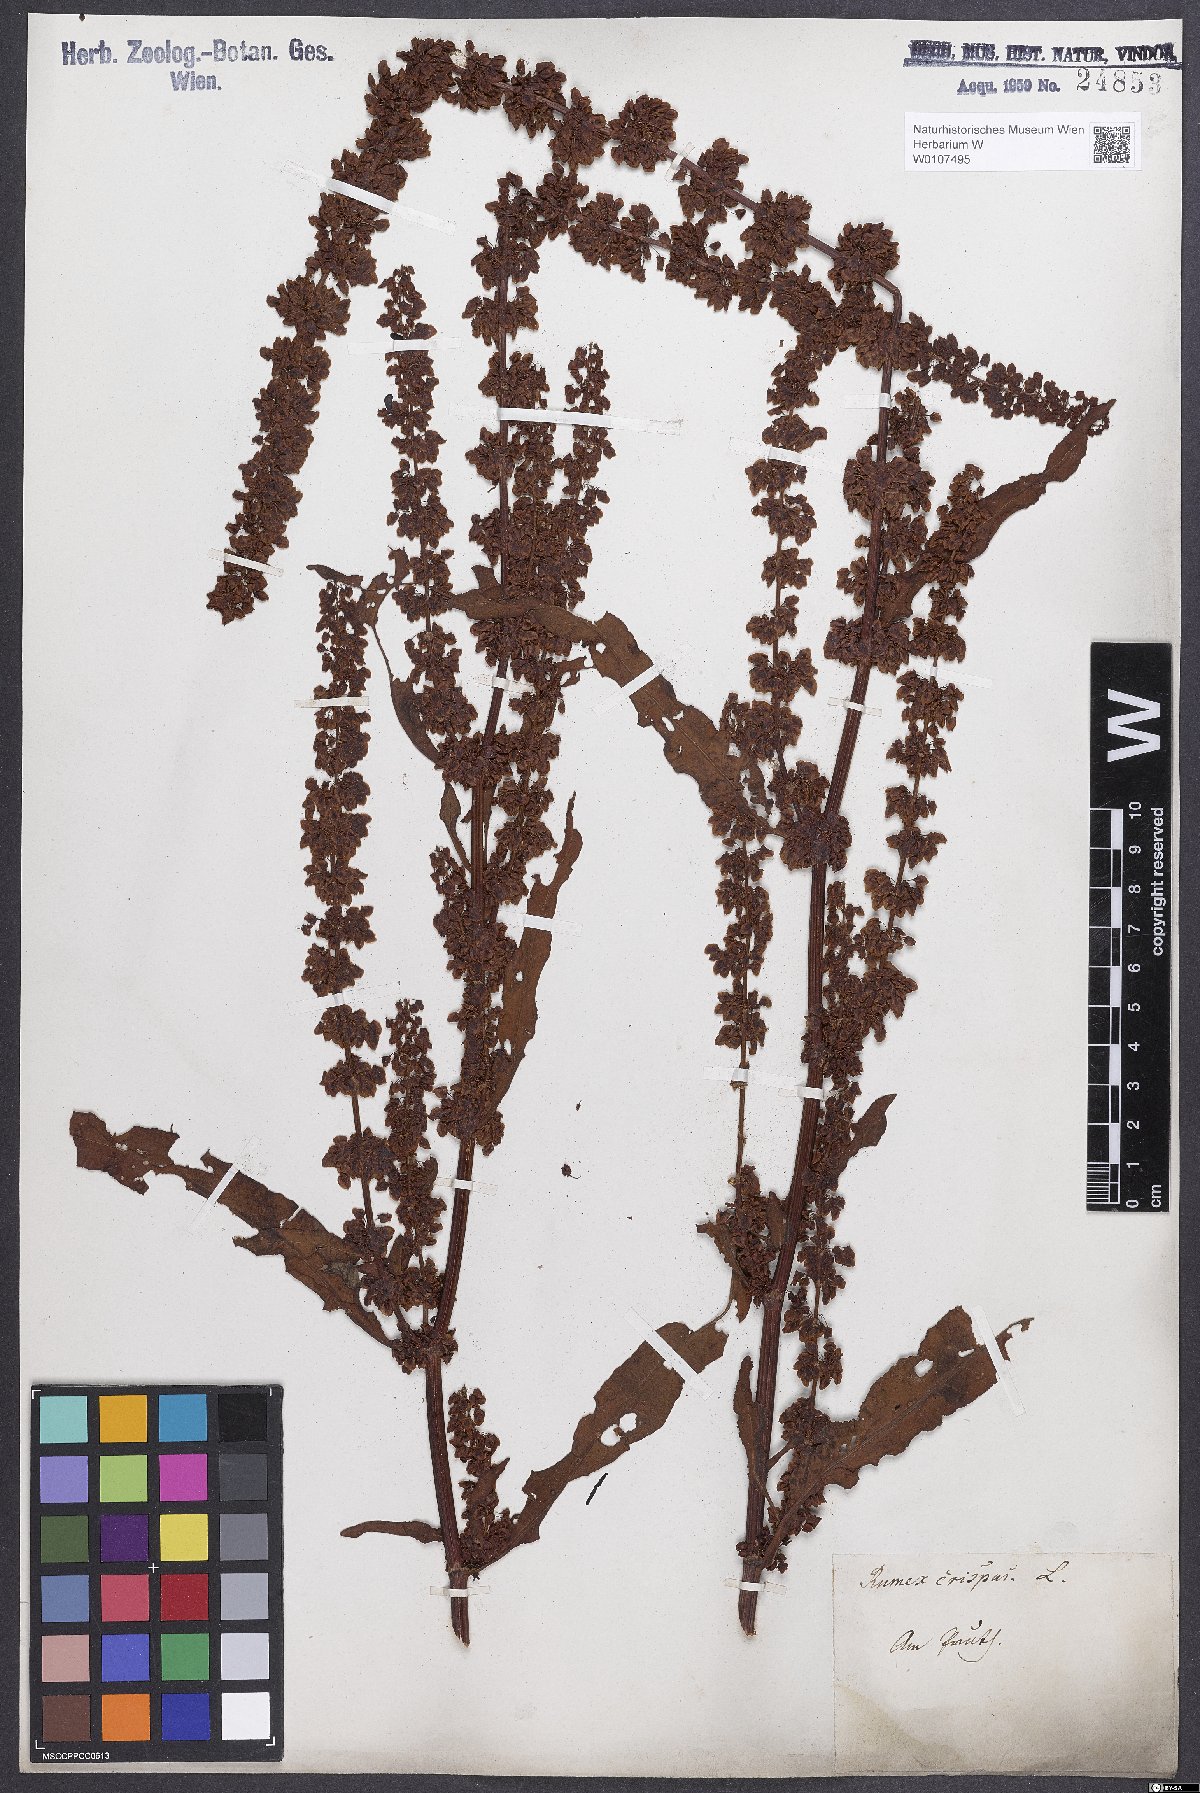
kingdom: Plantae
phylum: Tracheophyta
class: Magnoliopsida
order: Caryophyllales
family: Polygonaceae
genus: Rumex
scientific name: Rumex crispus
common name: Curled dock
